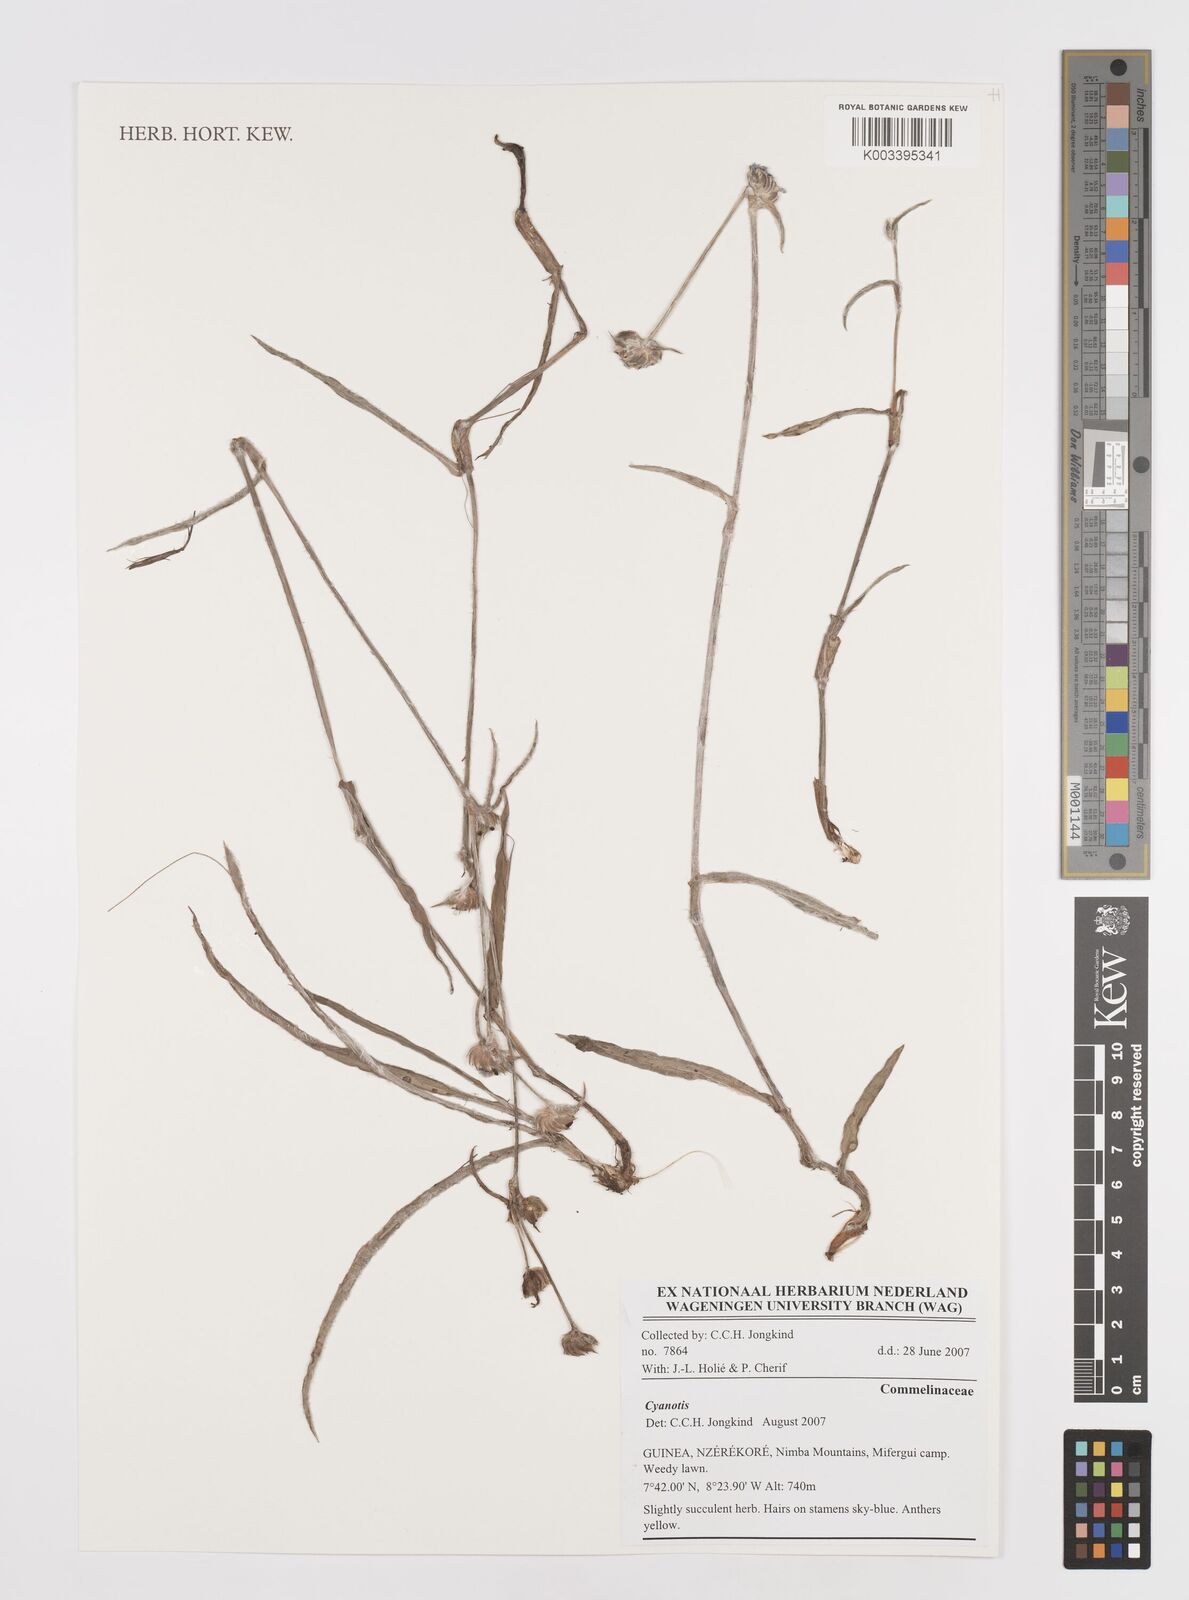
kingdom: Plantae
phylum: Tracheophyta
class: Liliopsida
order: Commelinales
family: Commelinaceae
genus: Cyanotis
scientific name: Cyanotis
